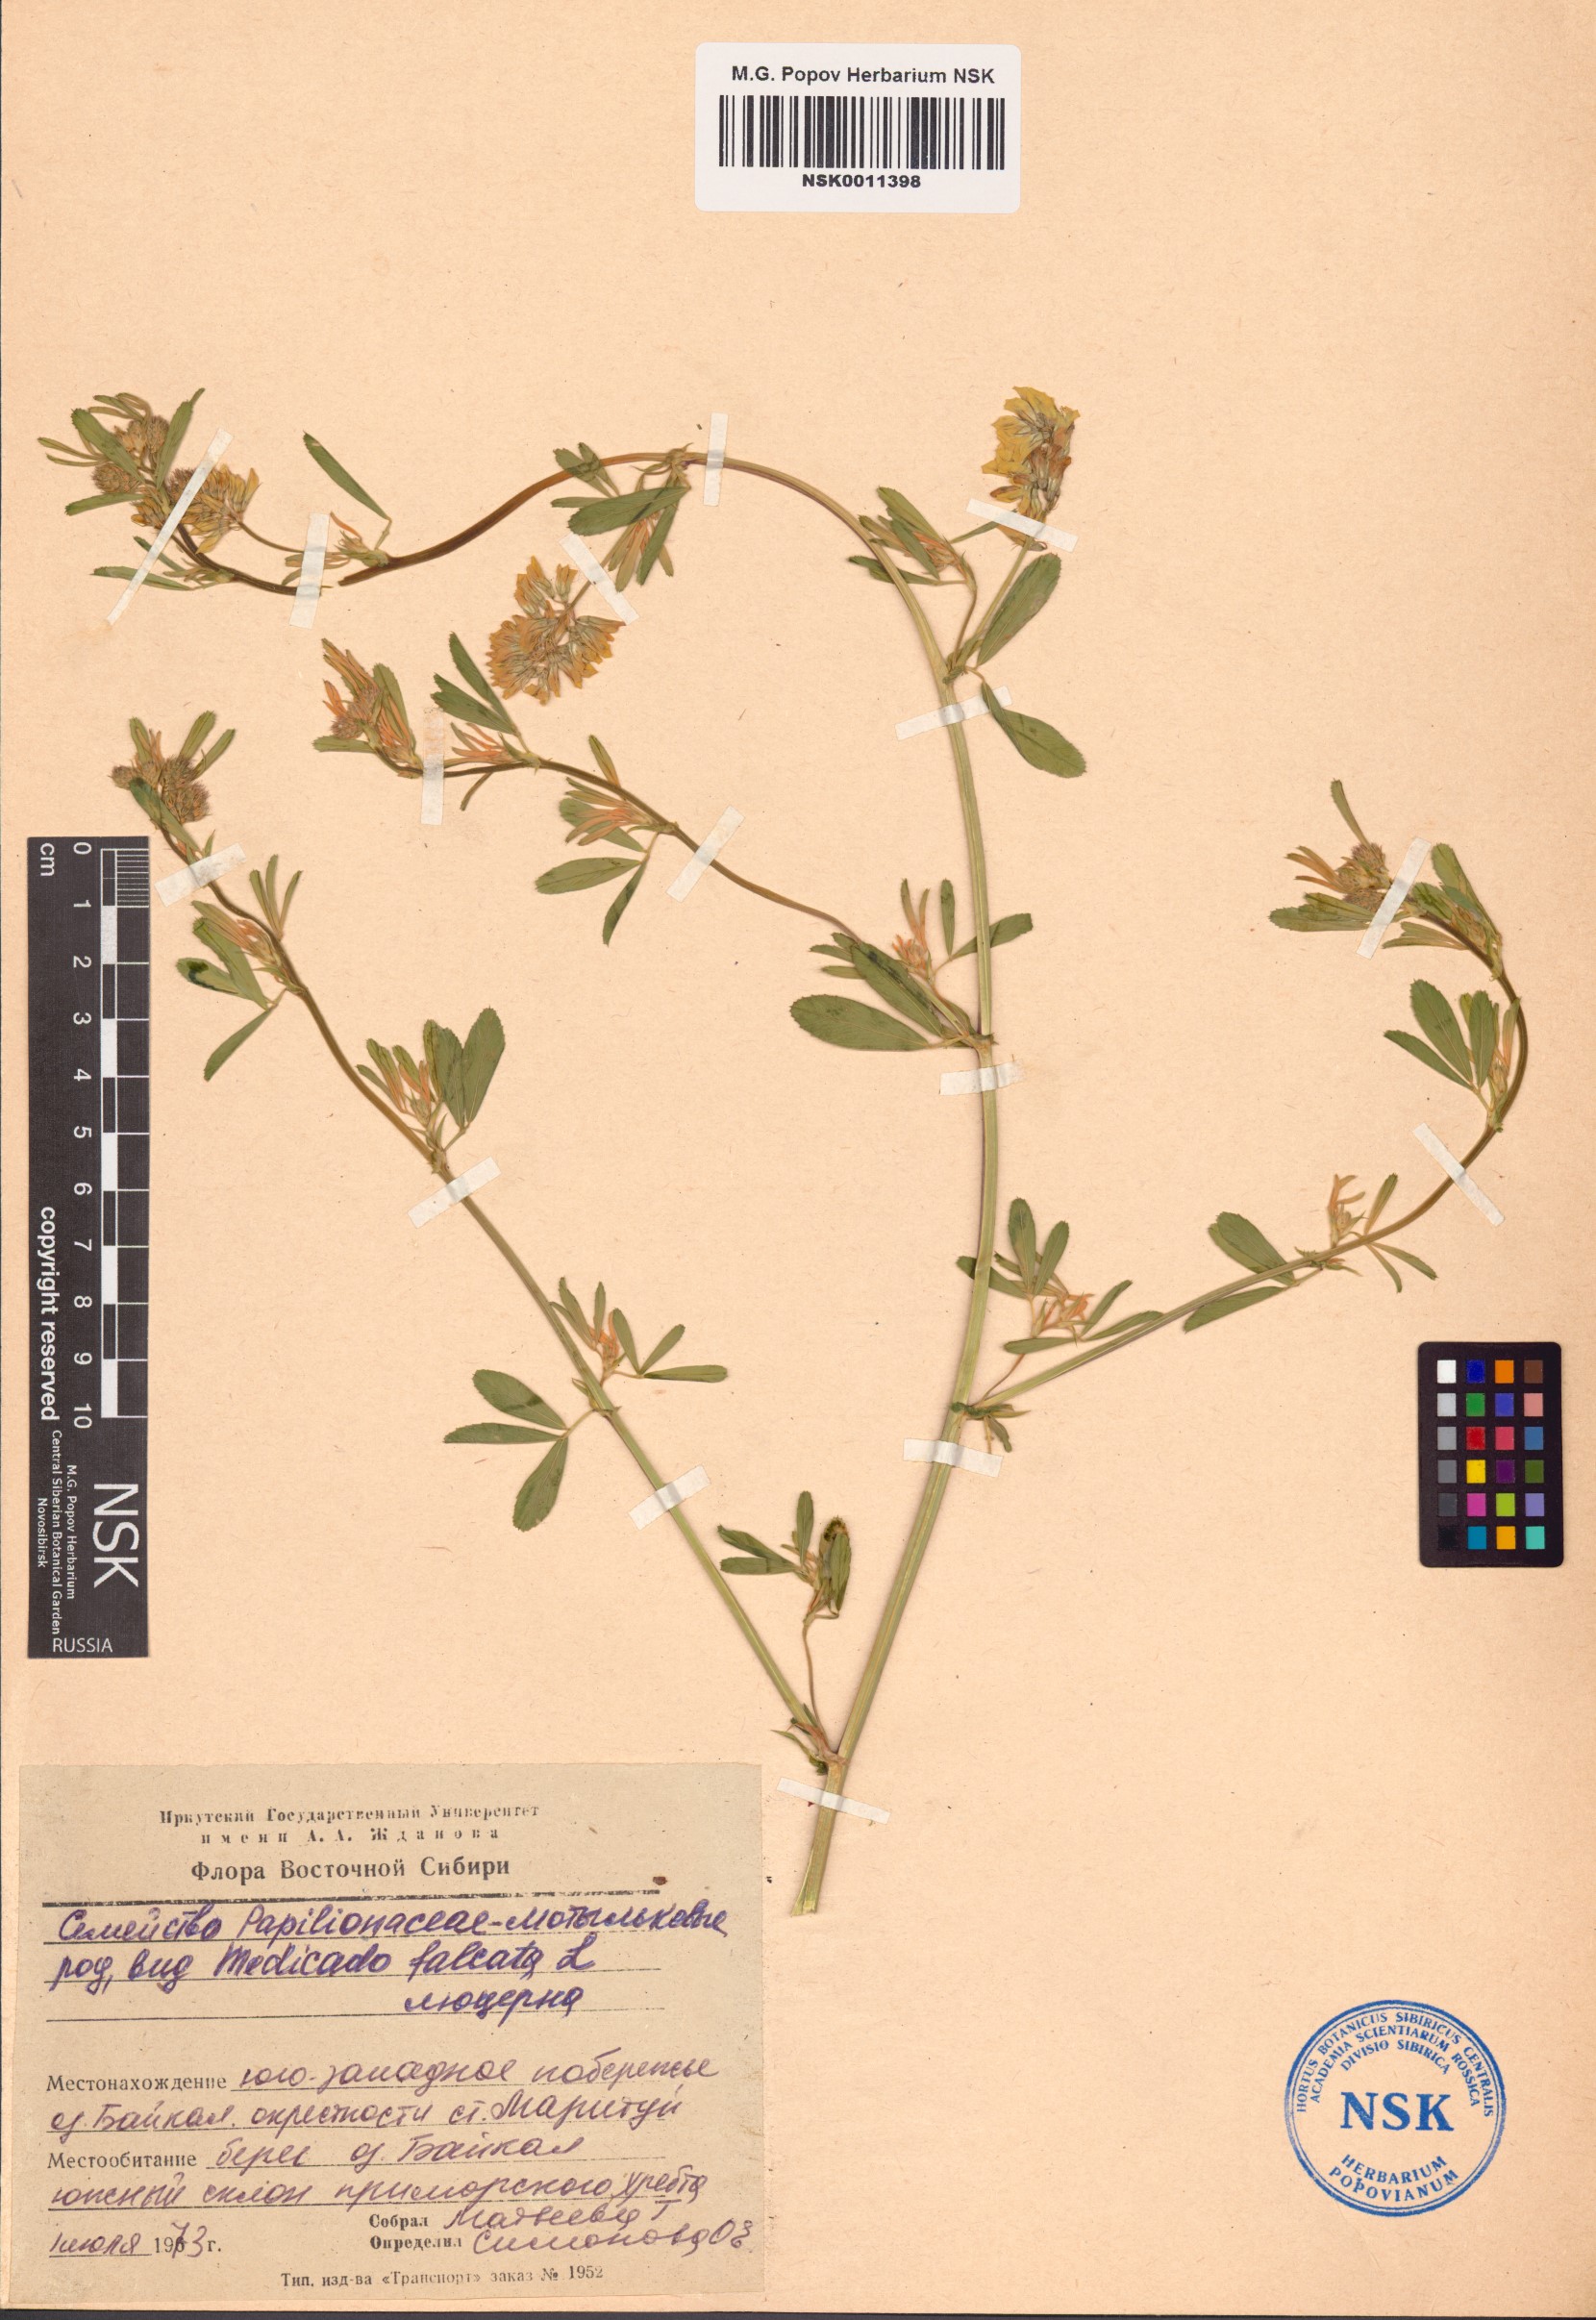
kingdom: Plantae
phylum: Tracheophyta
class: Magnoliopsida
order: Fabales
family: Fabaceae
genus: Medicago
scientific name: Medicago falcata
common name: Sickle medick
